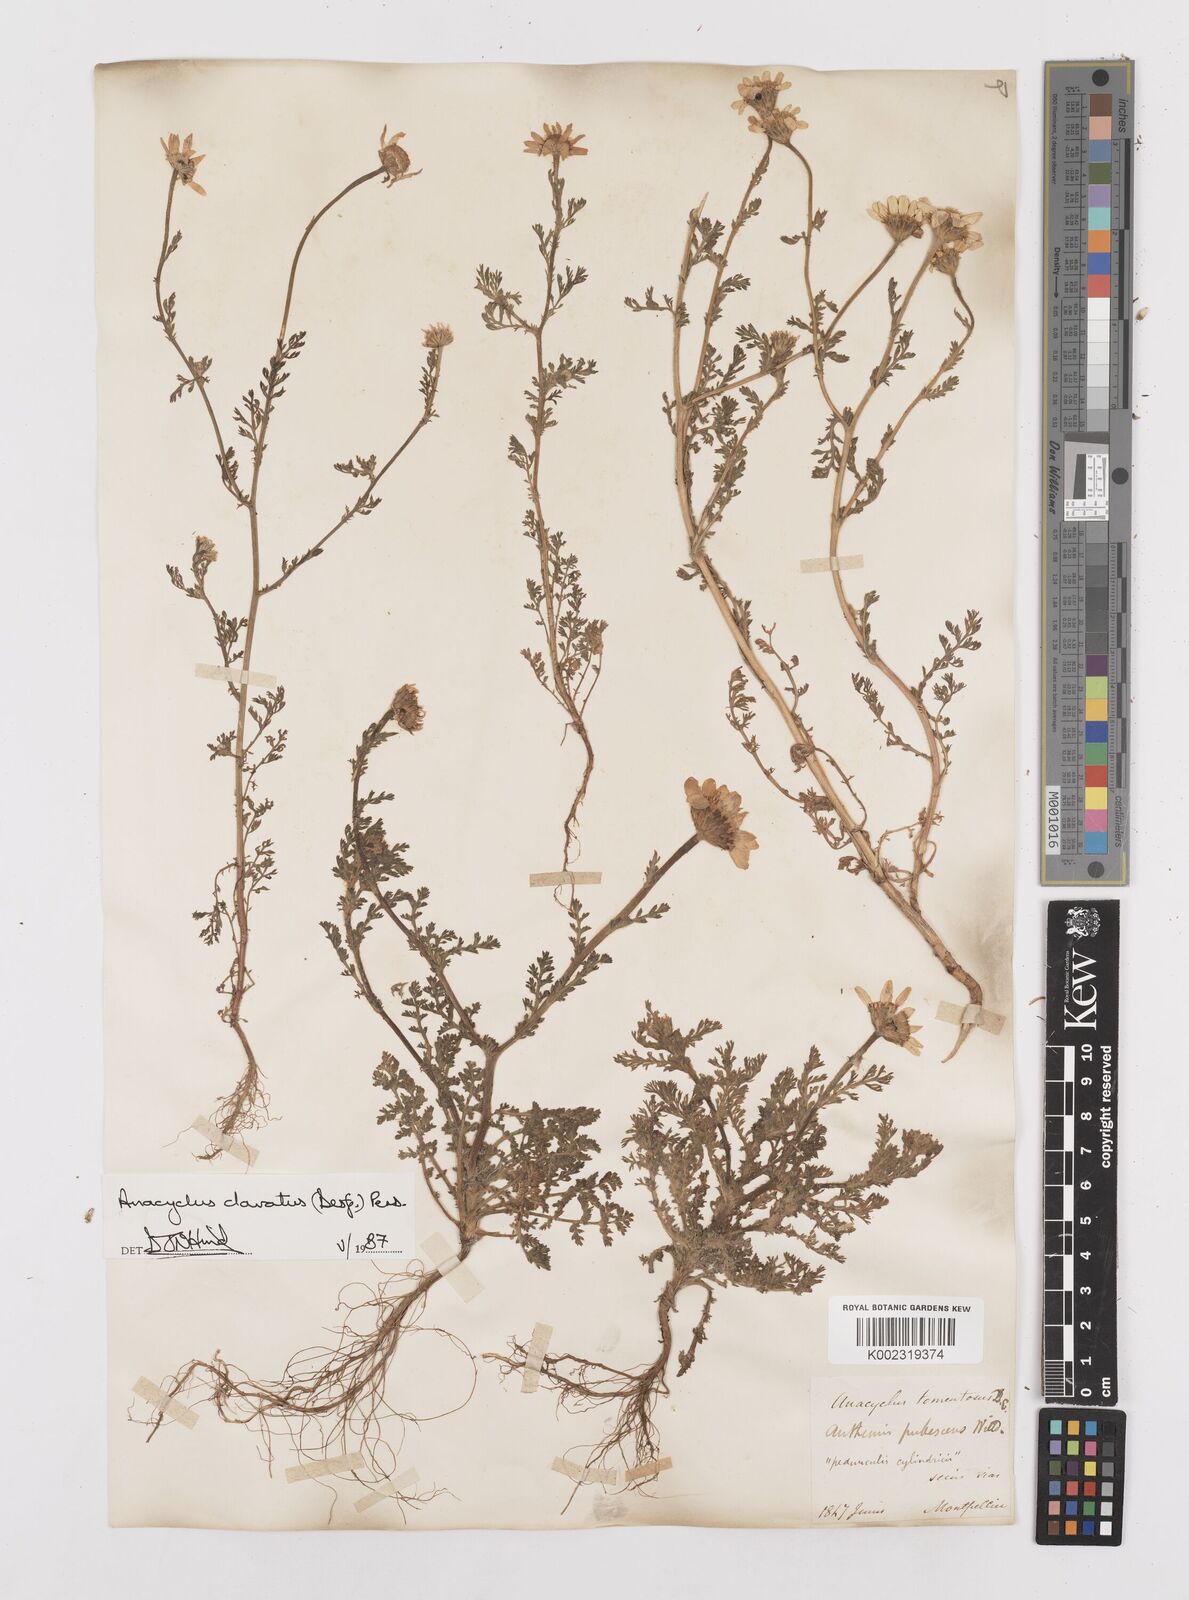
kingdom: Plantae
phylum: Tracheophyta
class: Magnoliopsida
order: Asterales
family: Asteraceae
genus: Anacyclus
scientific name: Anacyclus clavatus
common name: Whitebuttons
